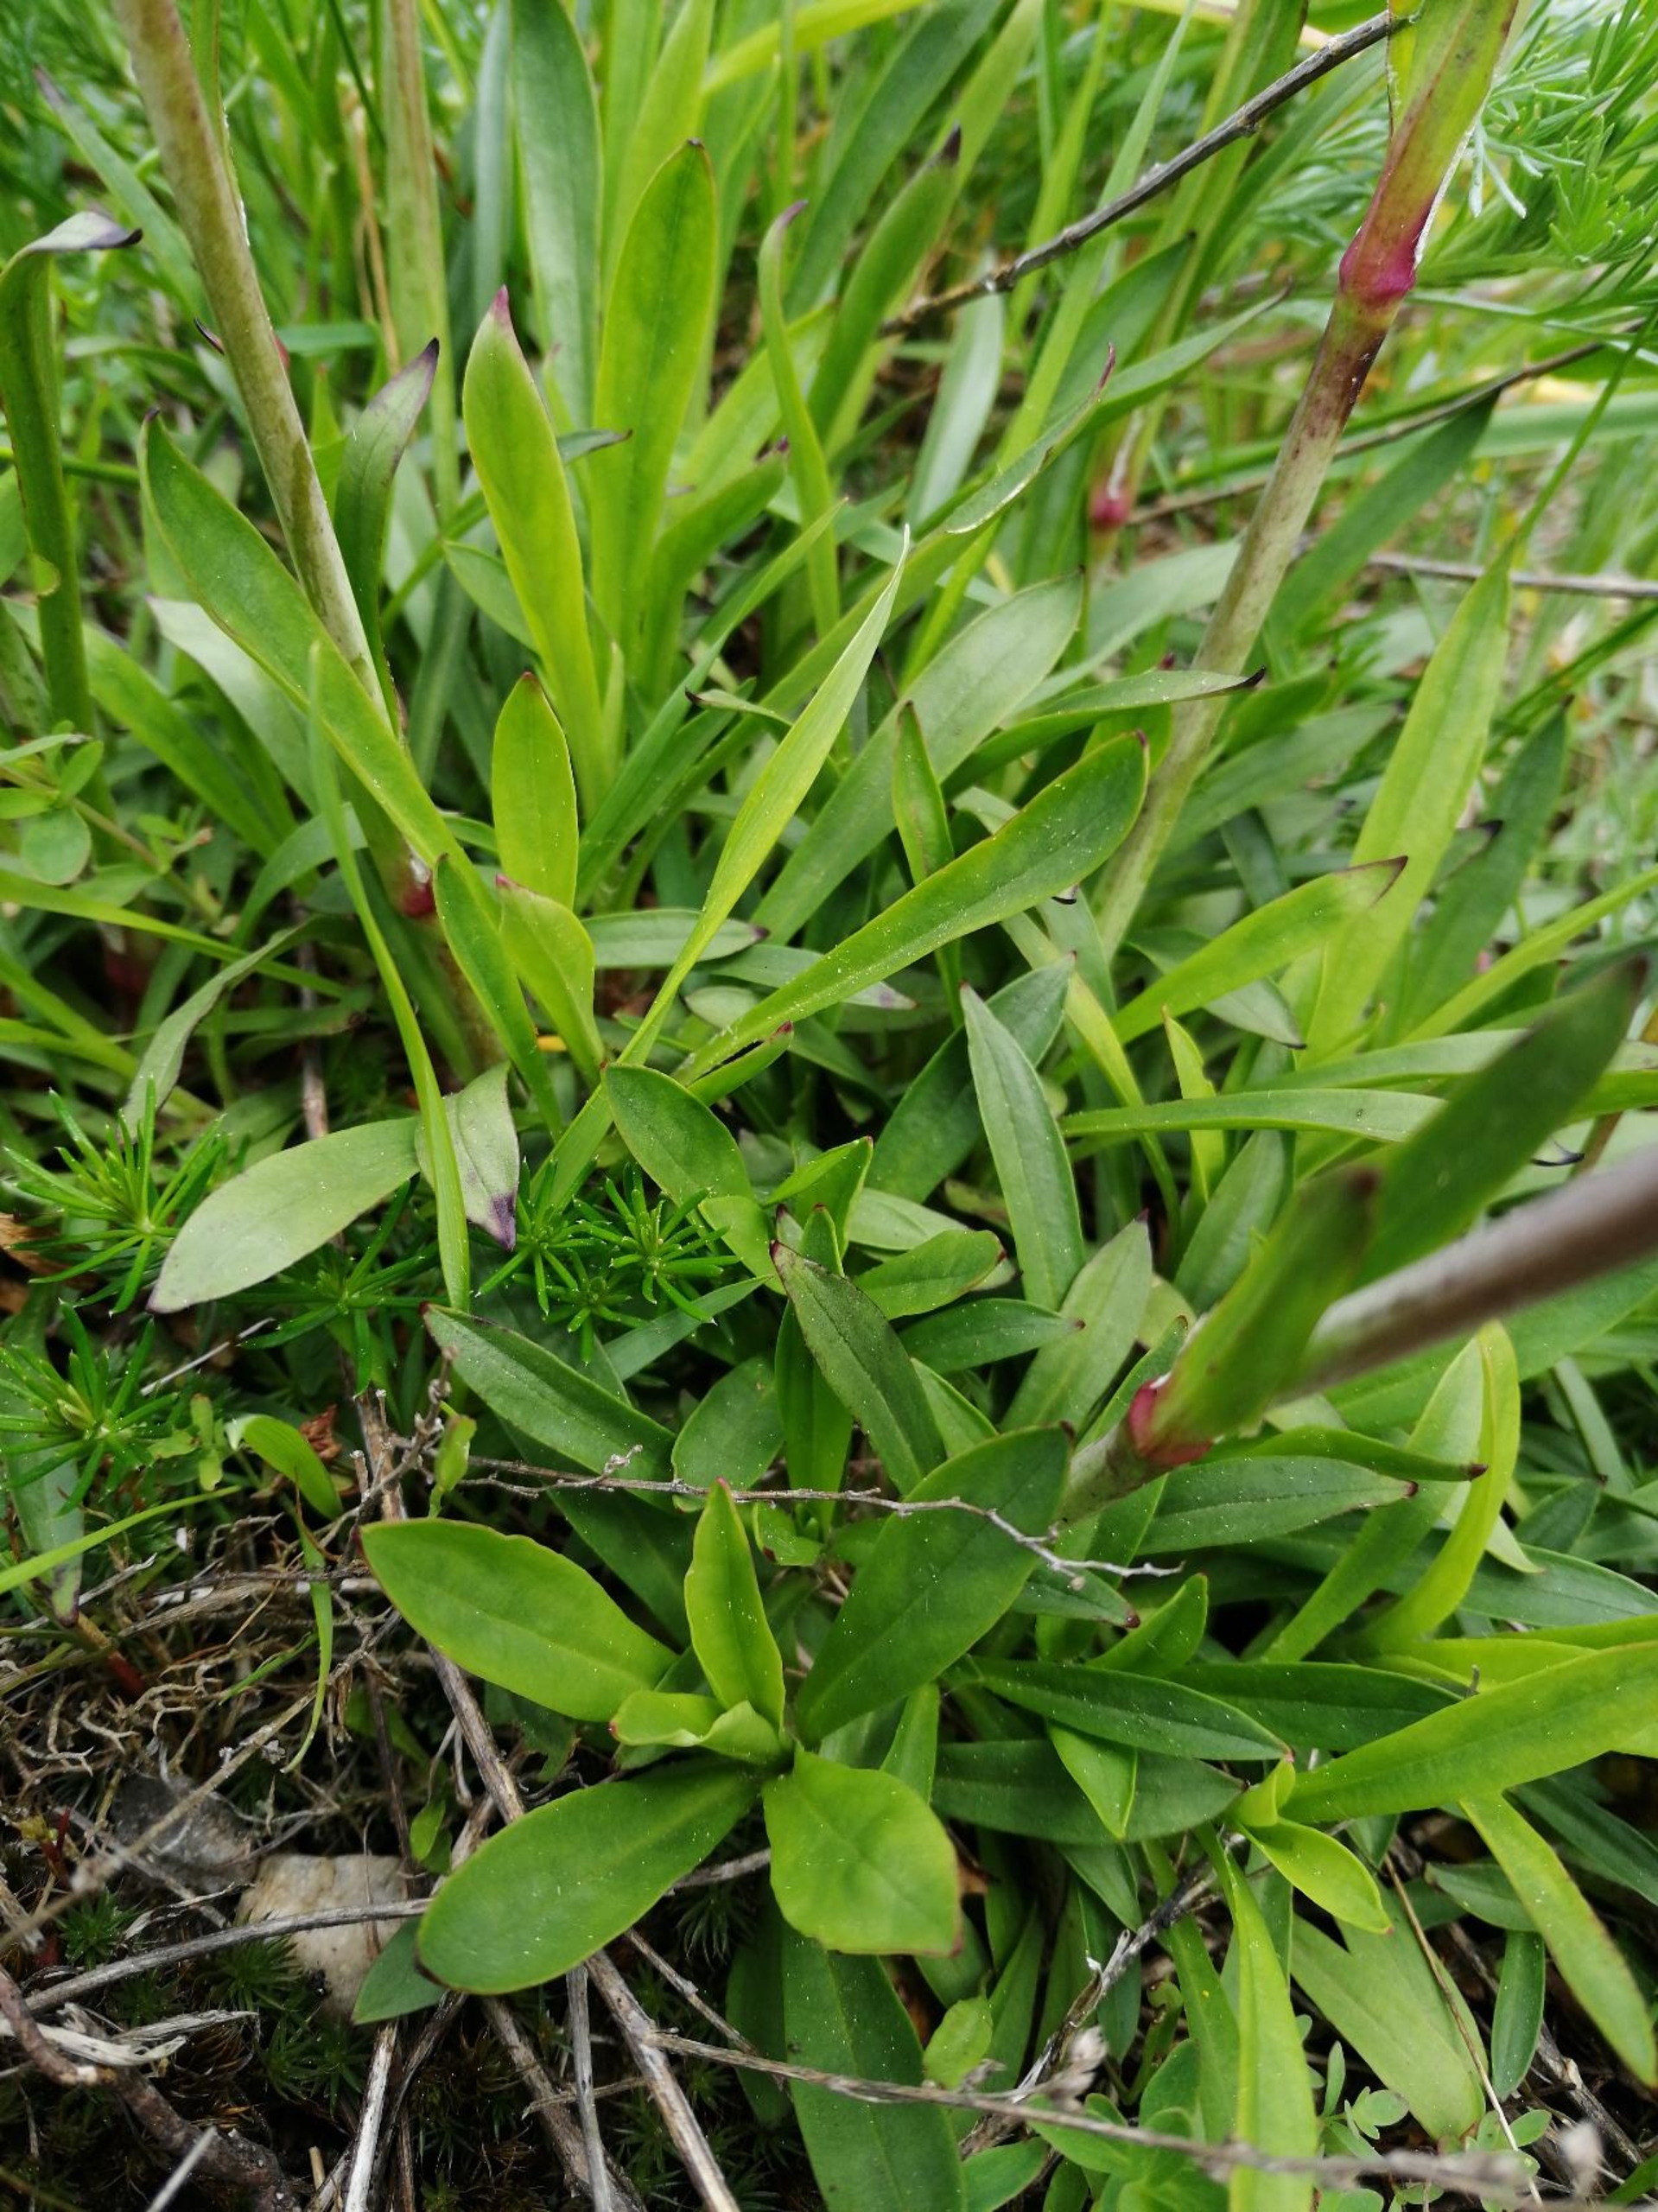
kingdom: Plantae
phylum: Tracheophyta
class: Magnoliopsida
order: Caryophyllales
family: Caryophyllaceae
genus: Viscaria
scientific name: Viscaria vulgaris
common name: Tjærenellike
